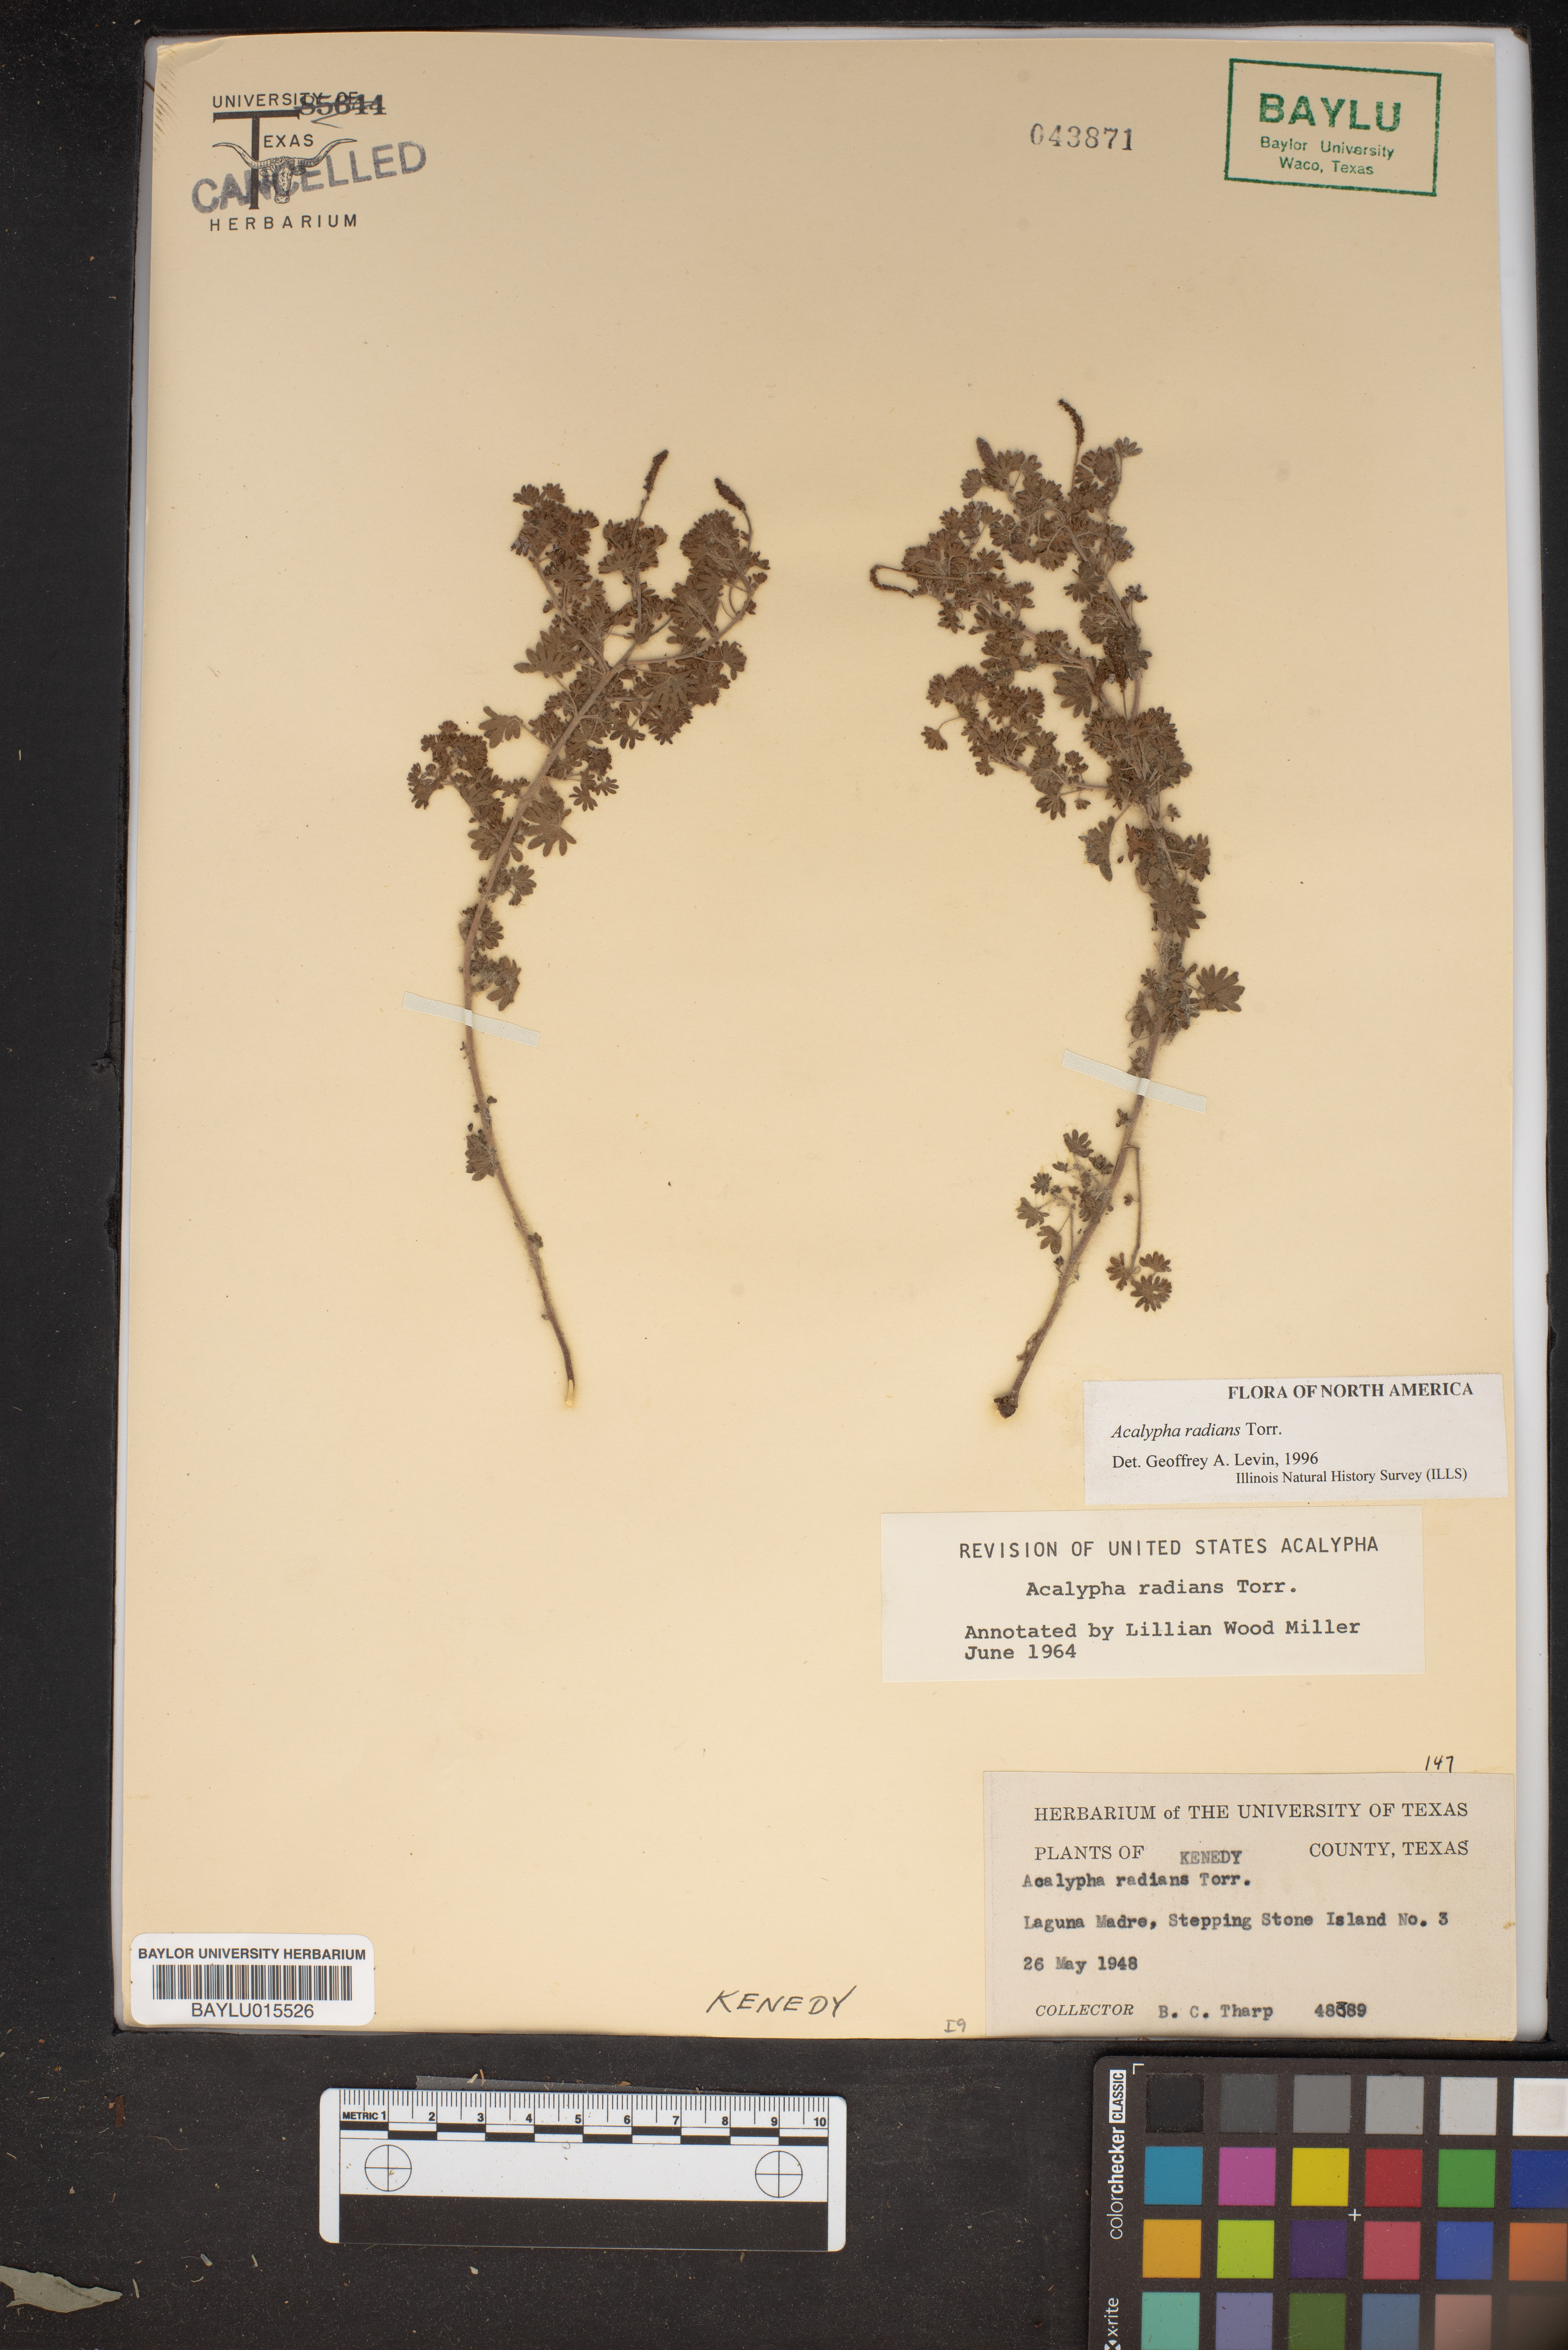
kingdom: Plantae
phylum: Tracheophyta
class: Magnoliopsida
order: Malpighiales
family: Euphorbiaceae
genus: Acalypha
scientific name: Acalypha radians
